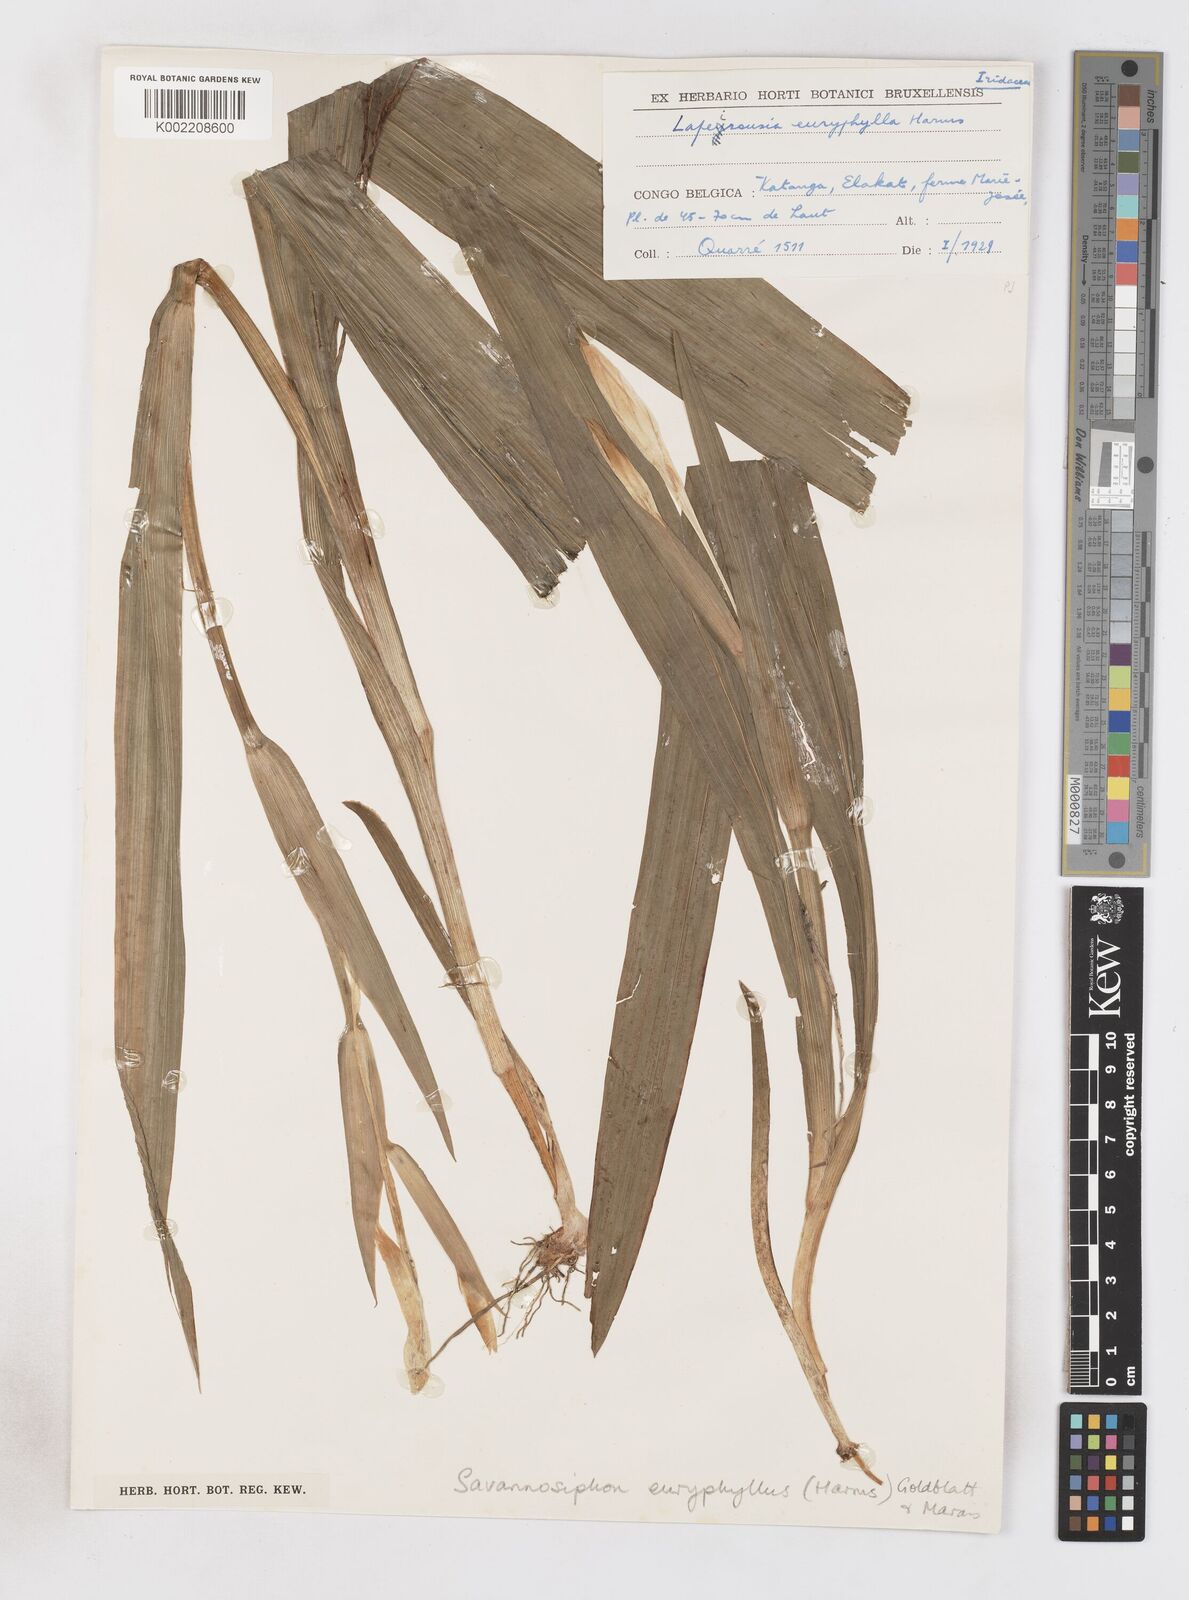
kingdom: Plantae
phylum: Tracheophyta
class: Liliopsida
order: Asparagales
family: Iridaceae
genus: Savannosiphon
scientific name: Savannosiphon euryphylla
